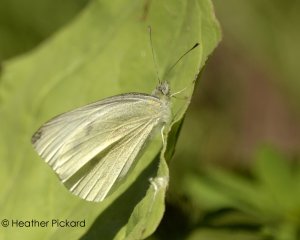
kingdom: Animalia
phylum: Arthropoda
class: Insecta
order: Lepidoptera
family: Pieridae
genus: Pieris
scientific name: Pieris rapae
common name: Cabbage White
